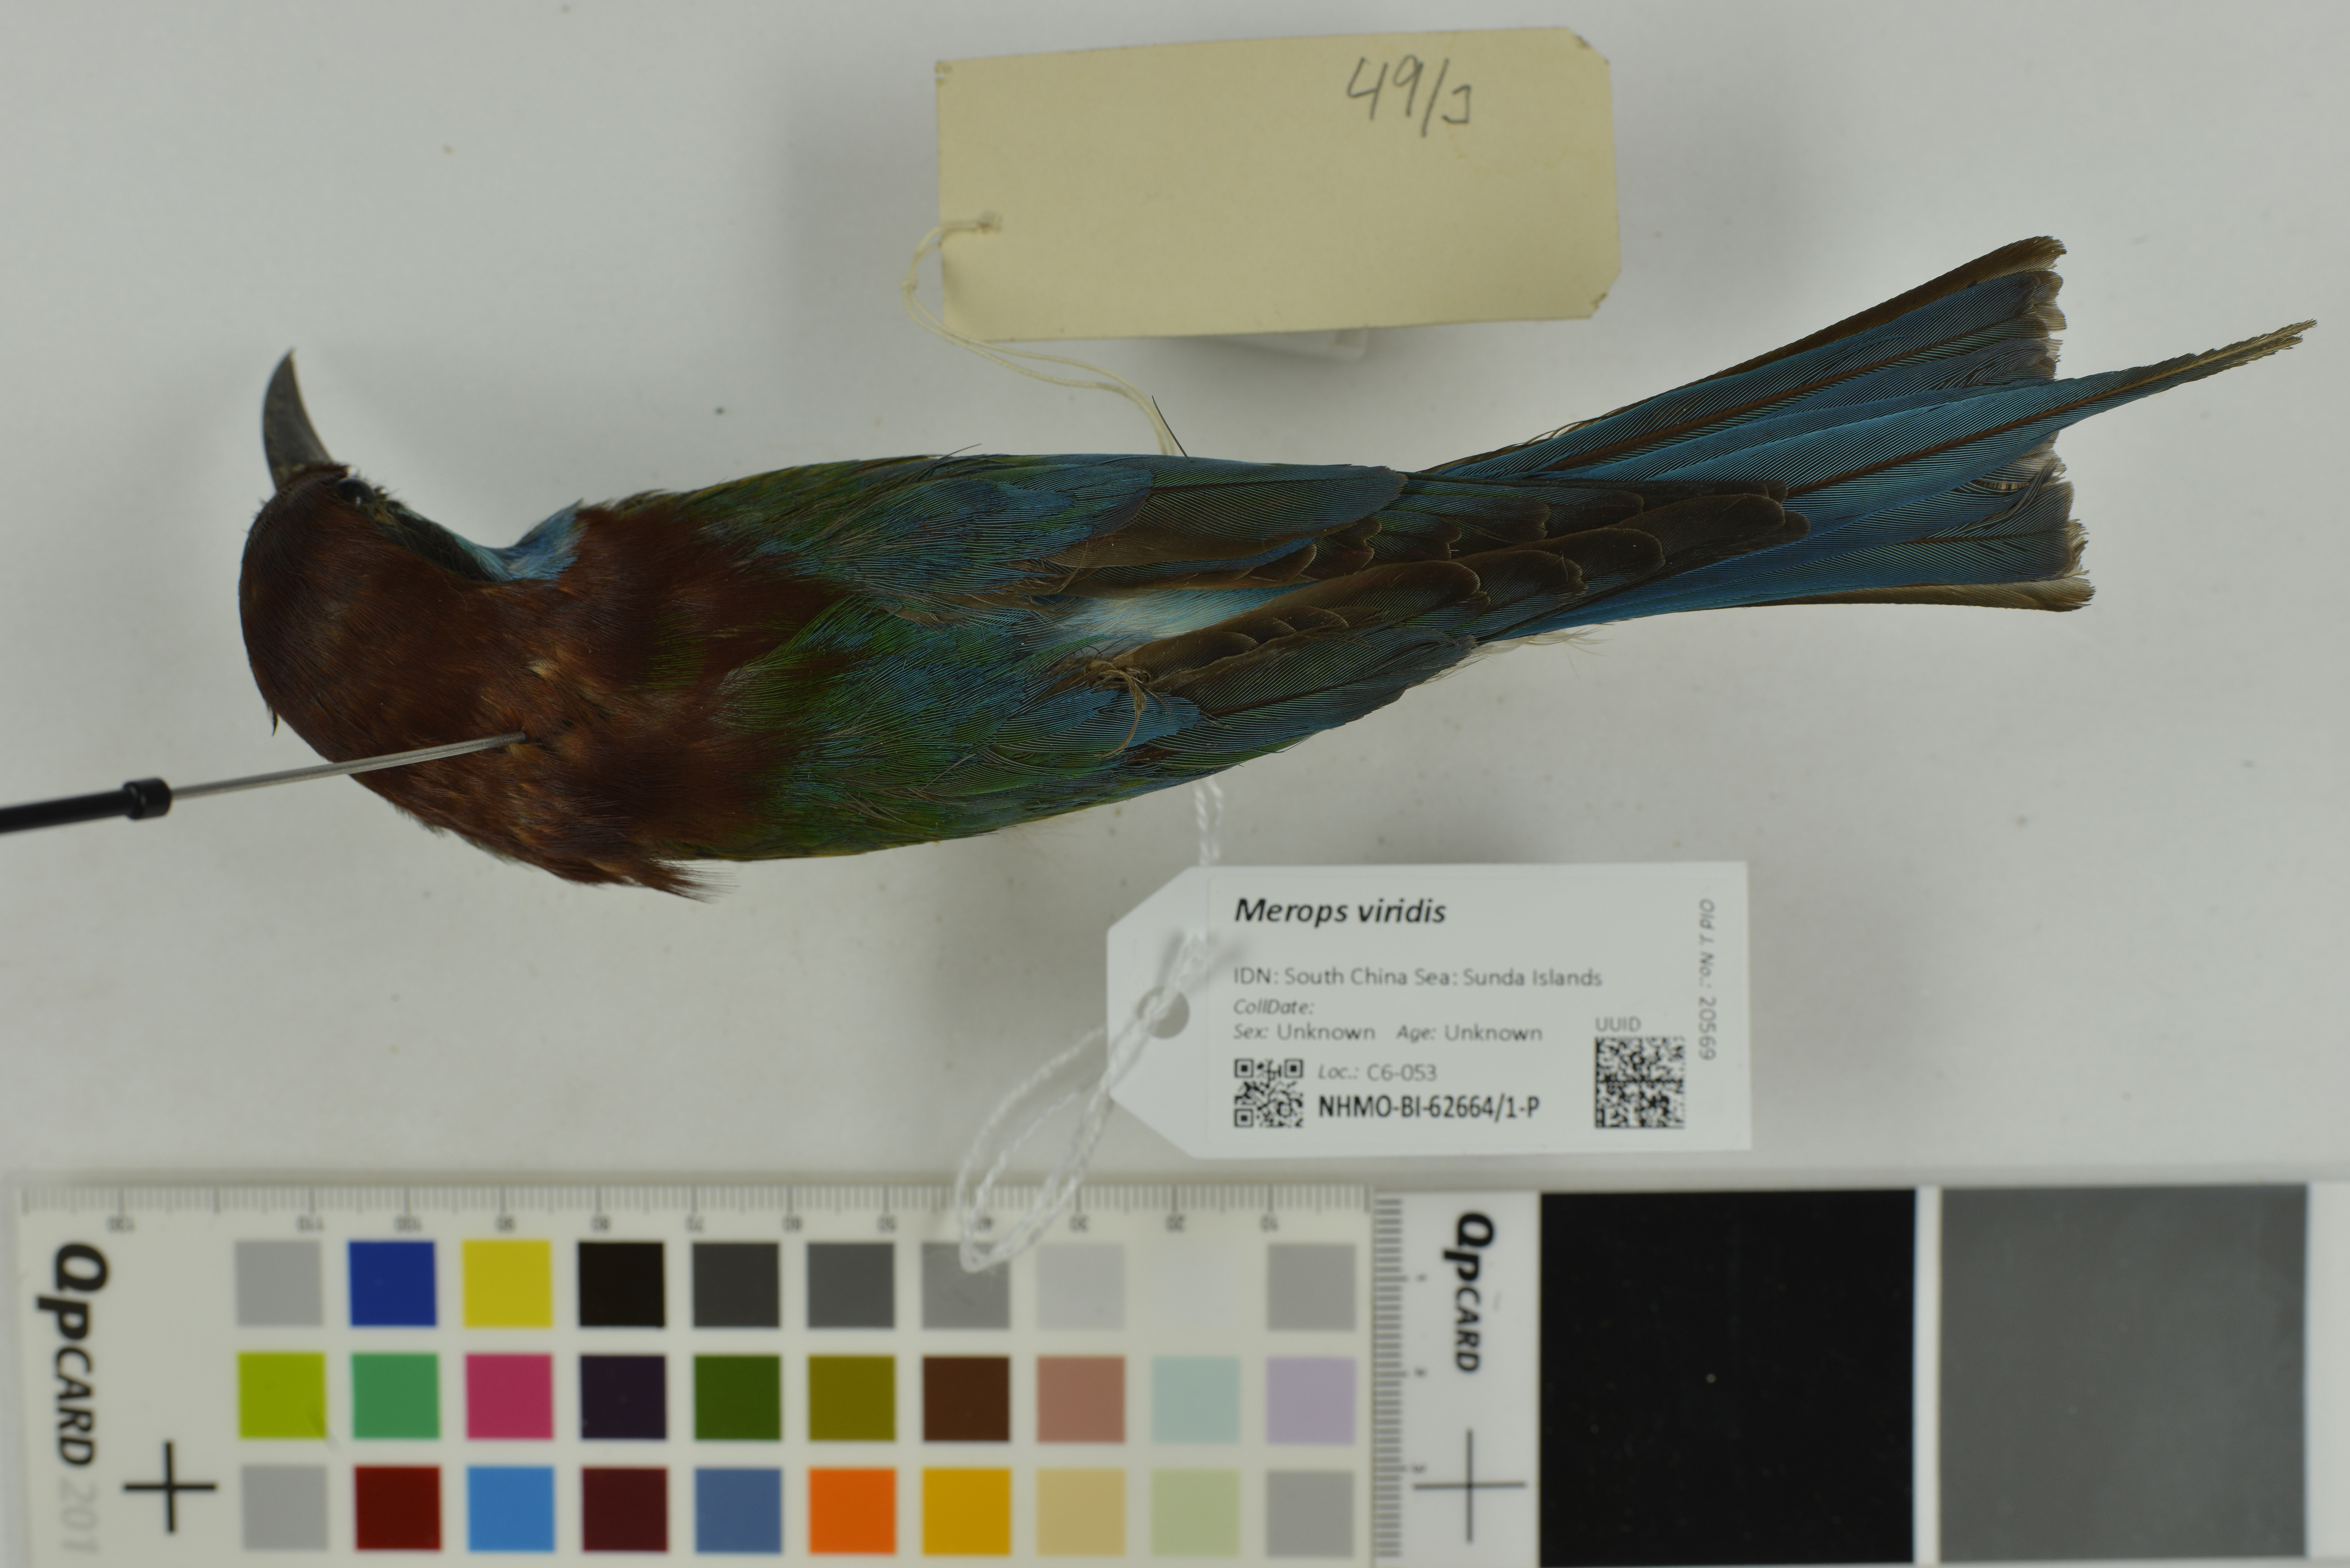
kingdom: Animalia
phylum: Chordata
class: Aves
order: Coraciiformes
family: Meropidae
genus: Merops
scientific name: Merops viridis
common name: Blue-throated bee-eater
